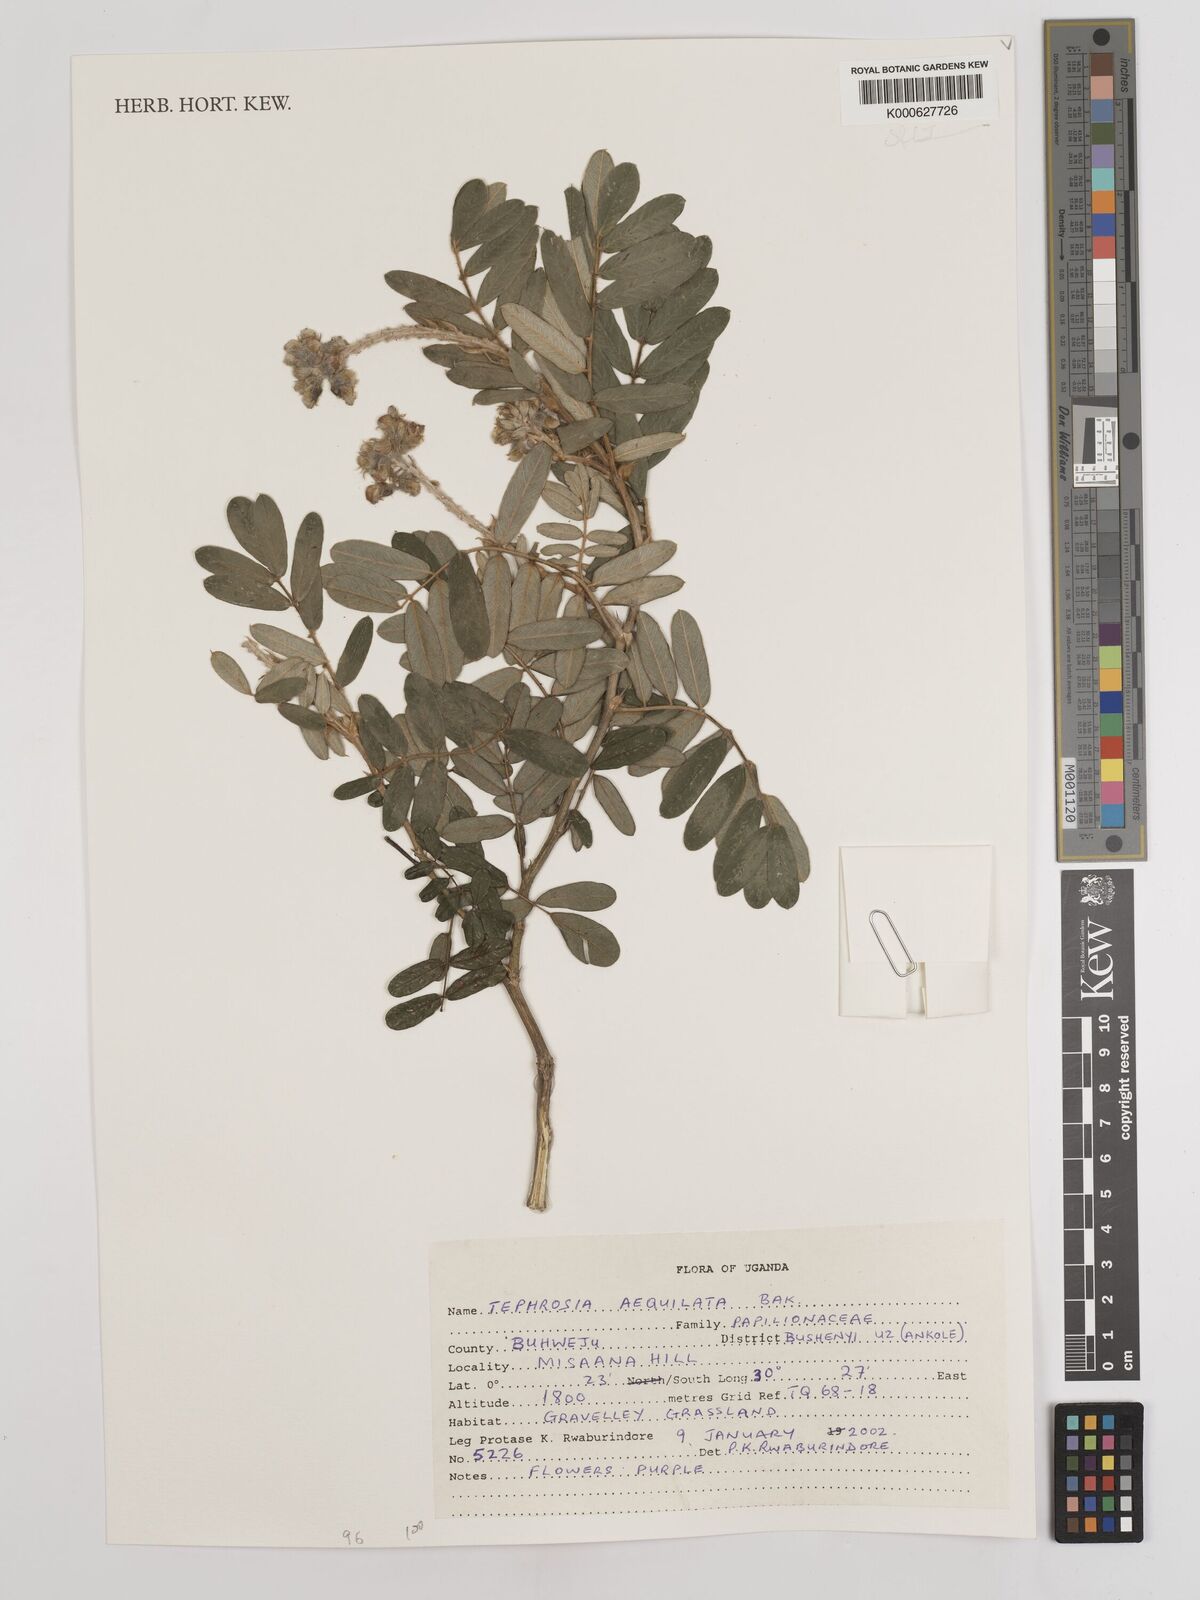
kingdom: Plantae
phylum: Tracheophyta
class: Magnoliopsida
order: Fabales
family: Fabaceae
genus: Tephrosia
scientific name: Tephrosia aequilata
